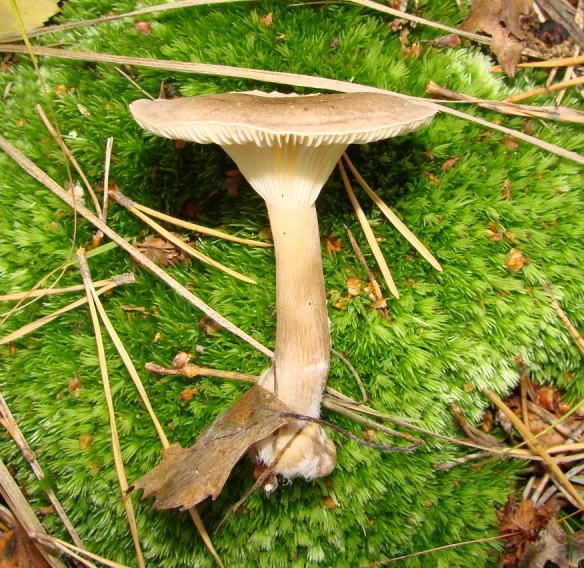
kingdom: Fungi
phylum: Basidiomycota
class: Agaricomycetes
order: Agaricales
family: Hygrophoraceae
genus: Ampulloclitocybe
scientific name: Ampulloclitocybe clavipes
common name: køllefod
